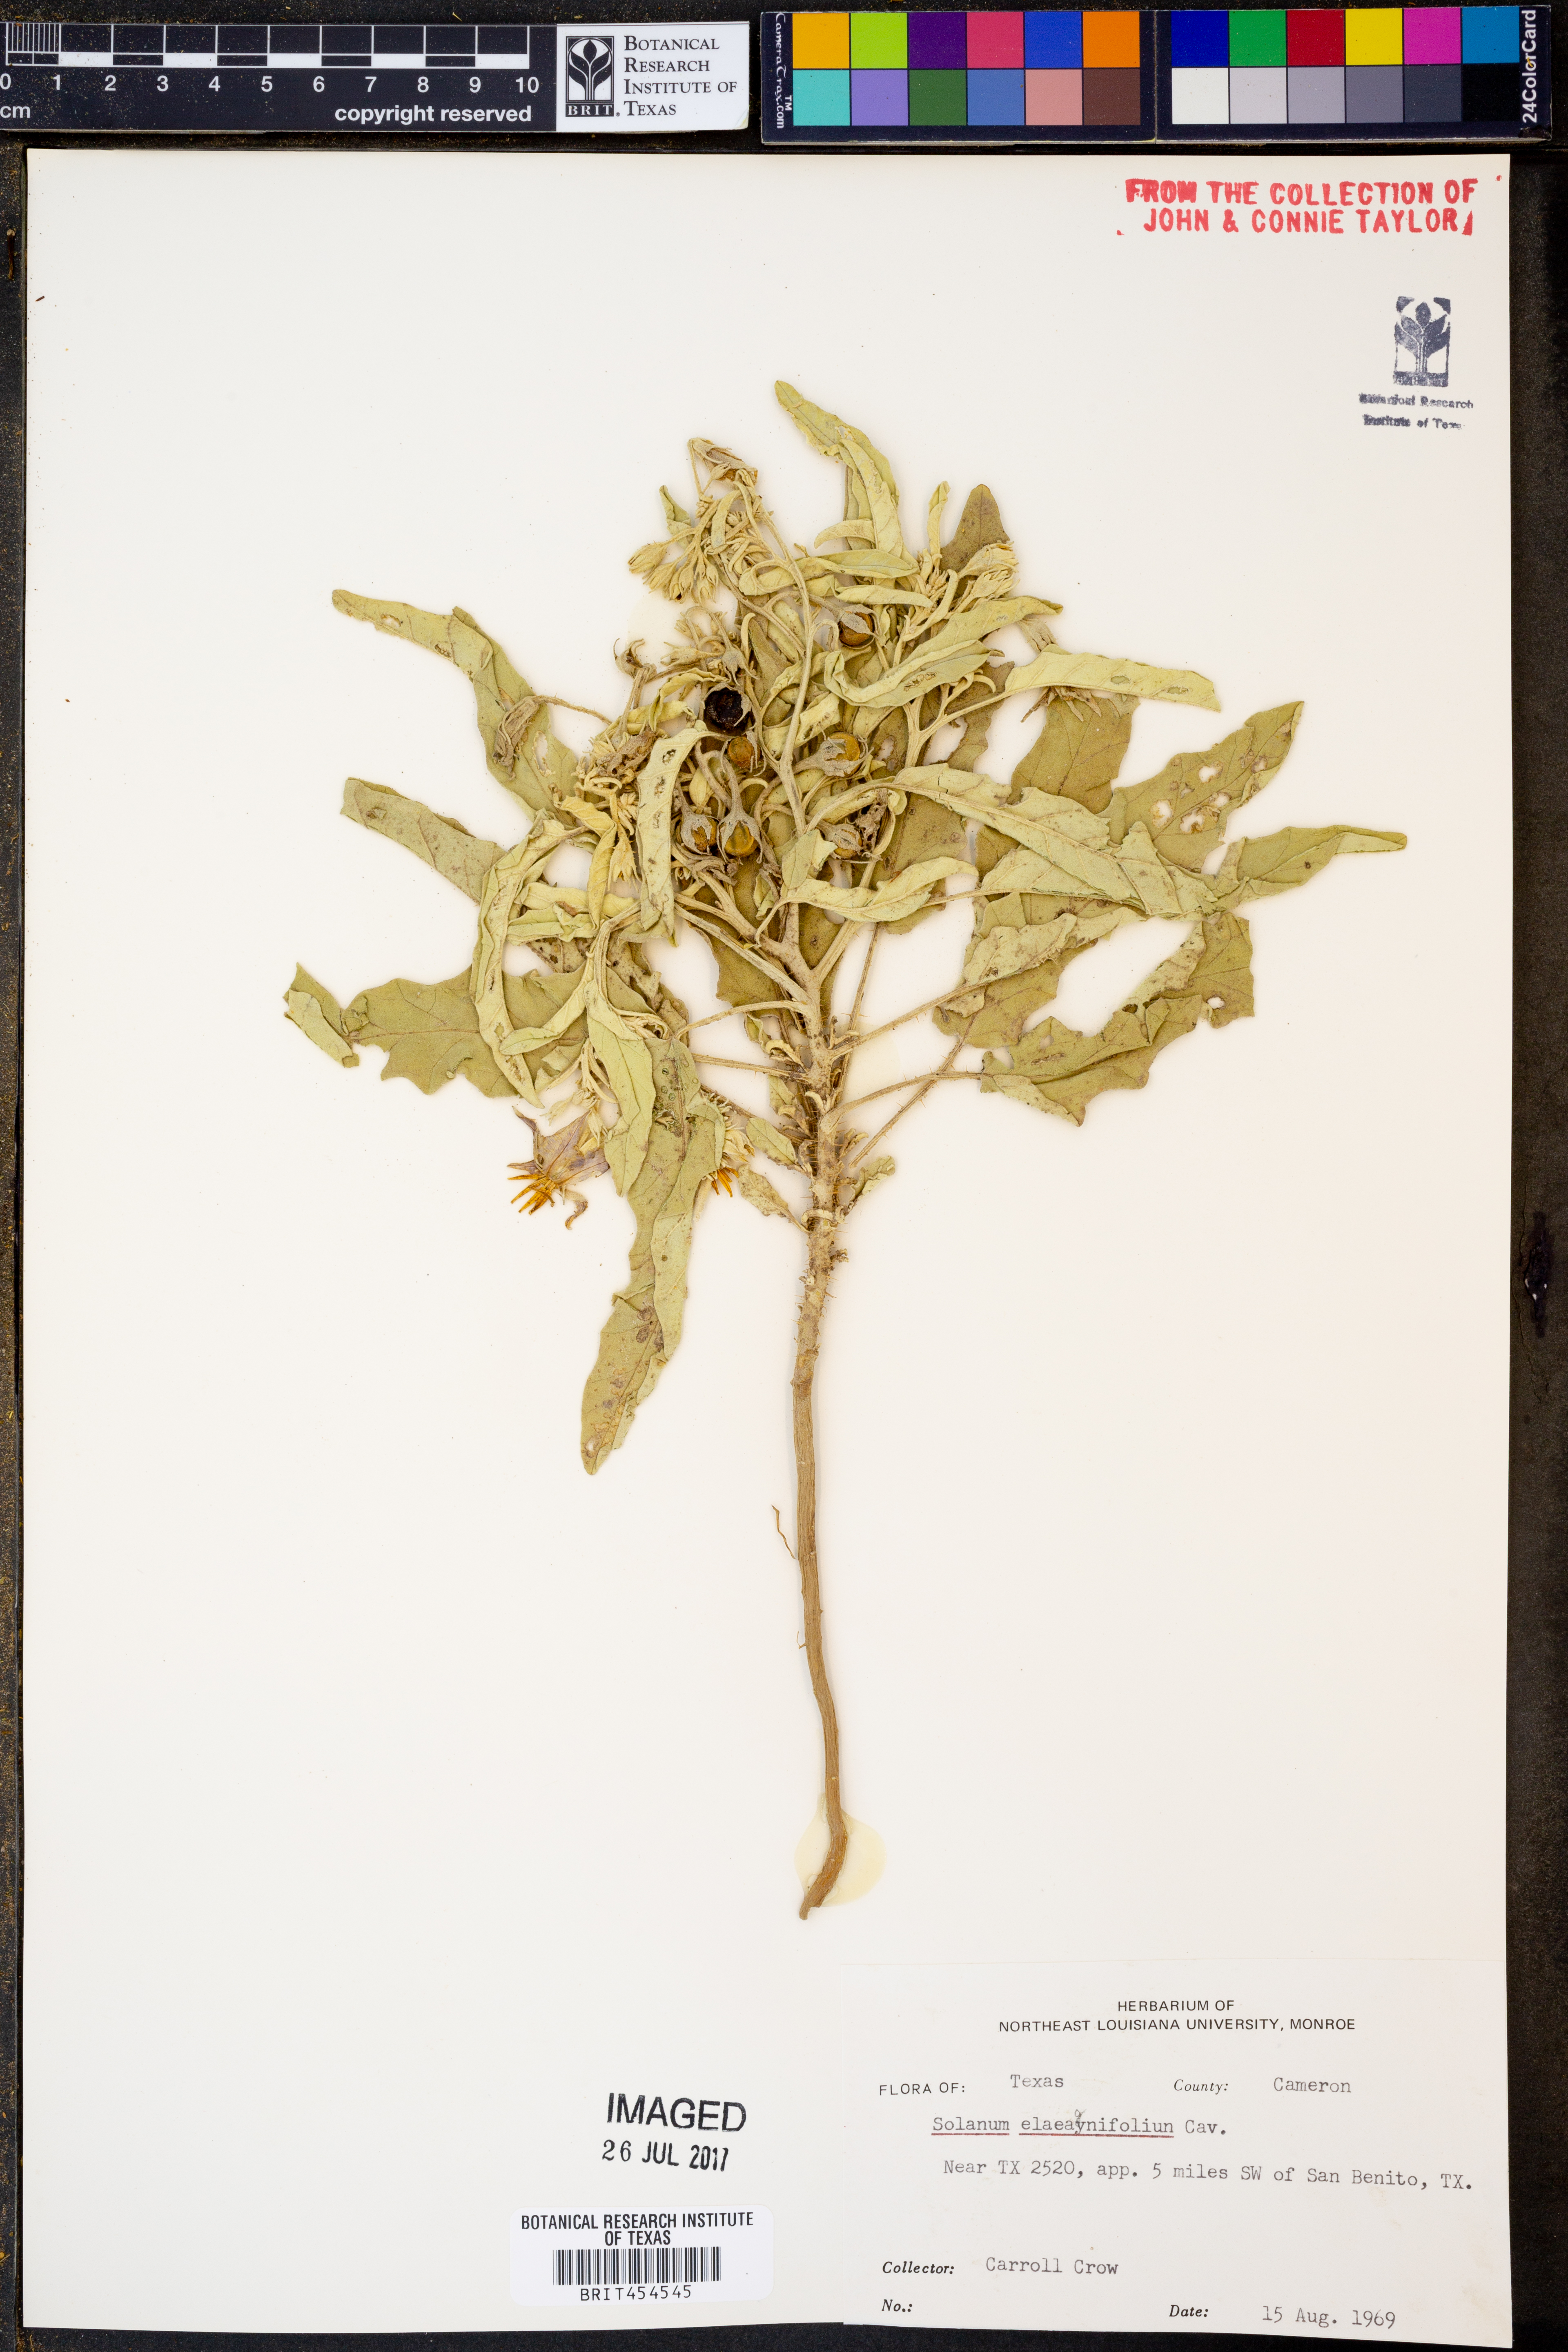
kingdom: Plantae
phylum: Tracheophyta
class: Magnoliopsida
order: Solanales
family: Solanaceae
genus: Solanum
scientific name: Solanum elaeagnifolium
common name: Silverleaf nightshade
